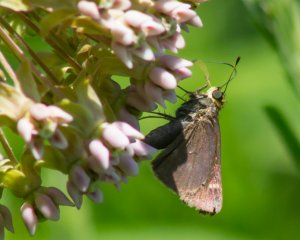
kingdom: Animalia
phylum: Arthropoda
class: Insecta
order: Lepidoptera
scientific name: Lepidoptera
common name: Butterflies
